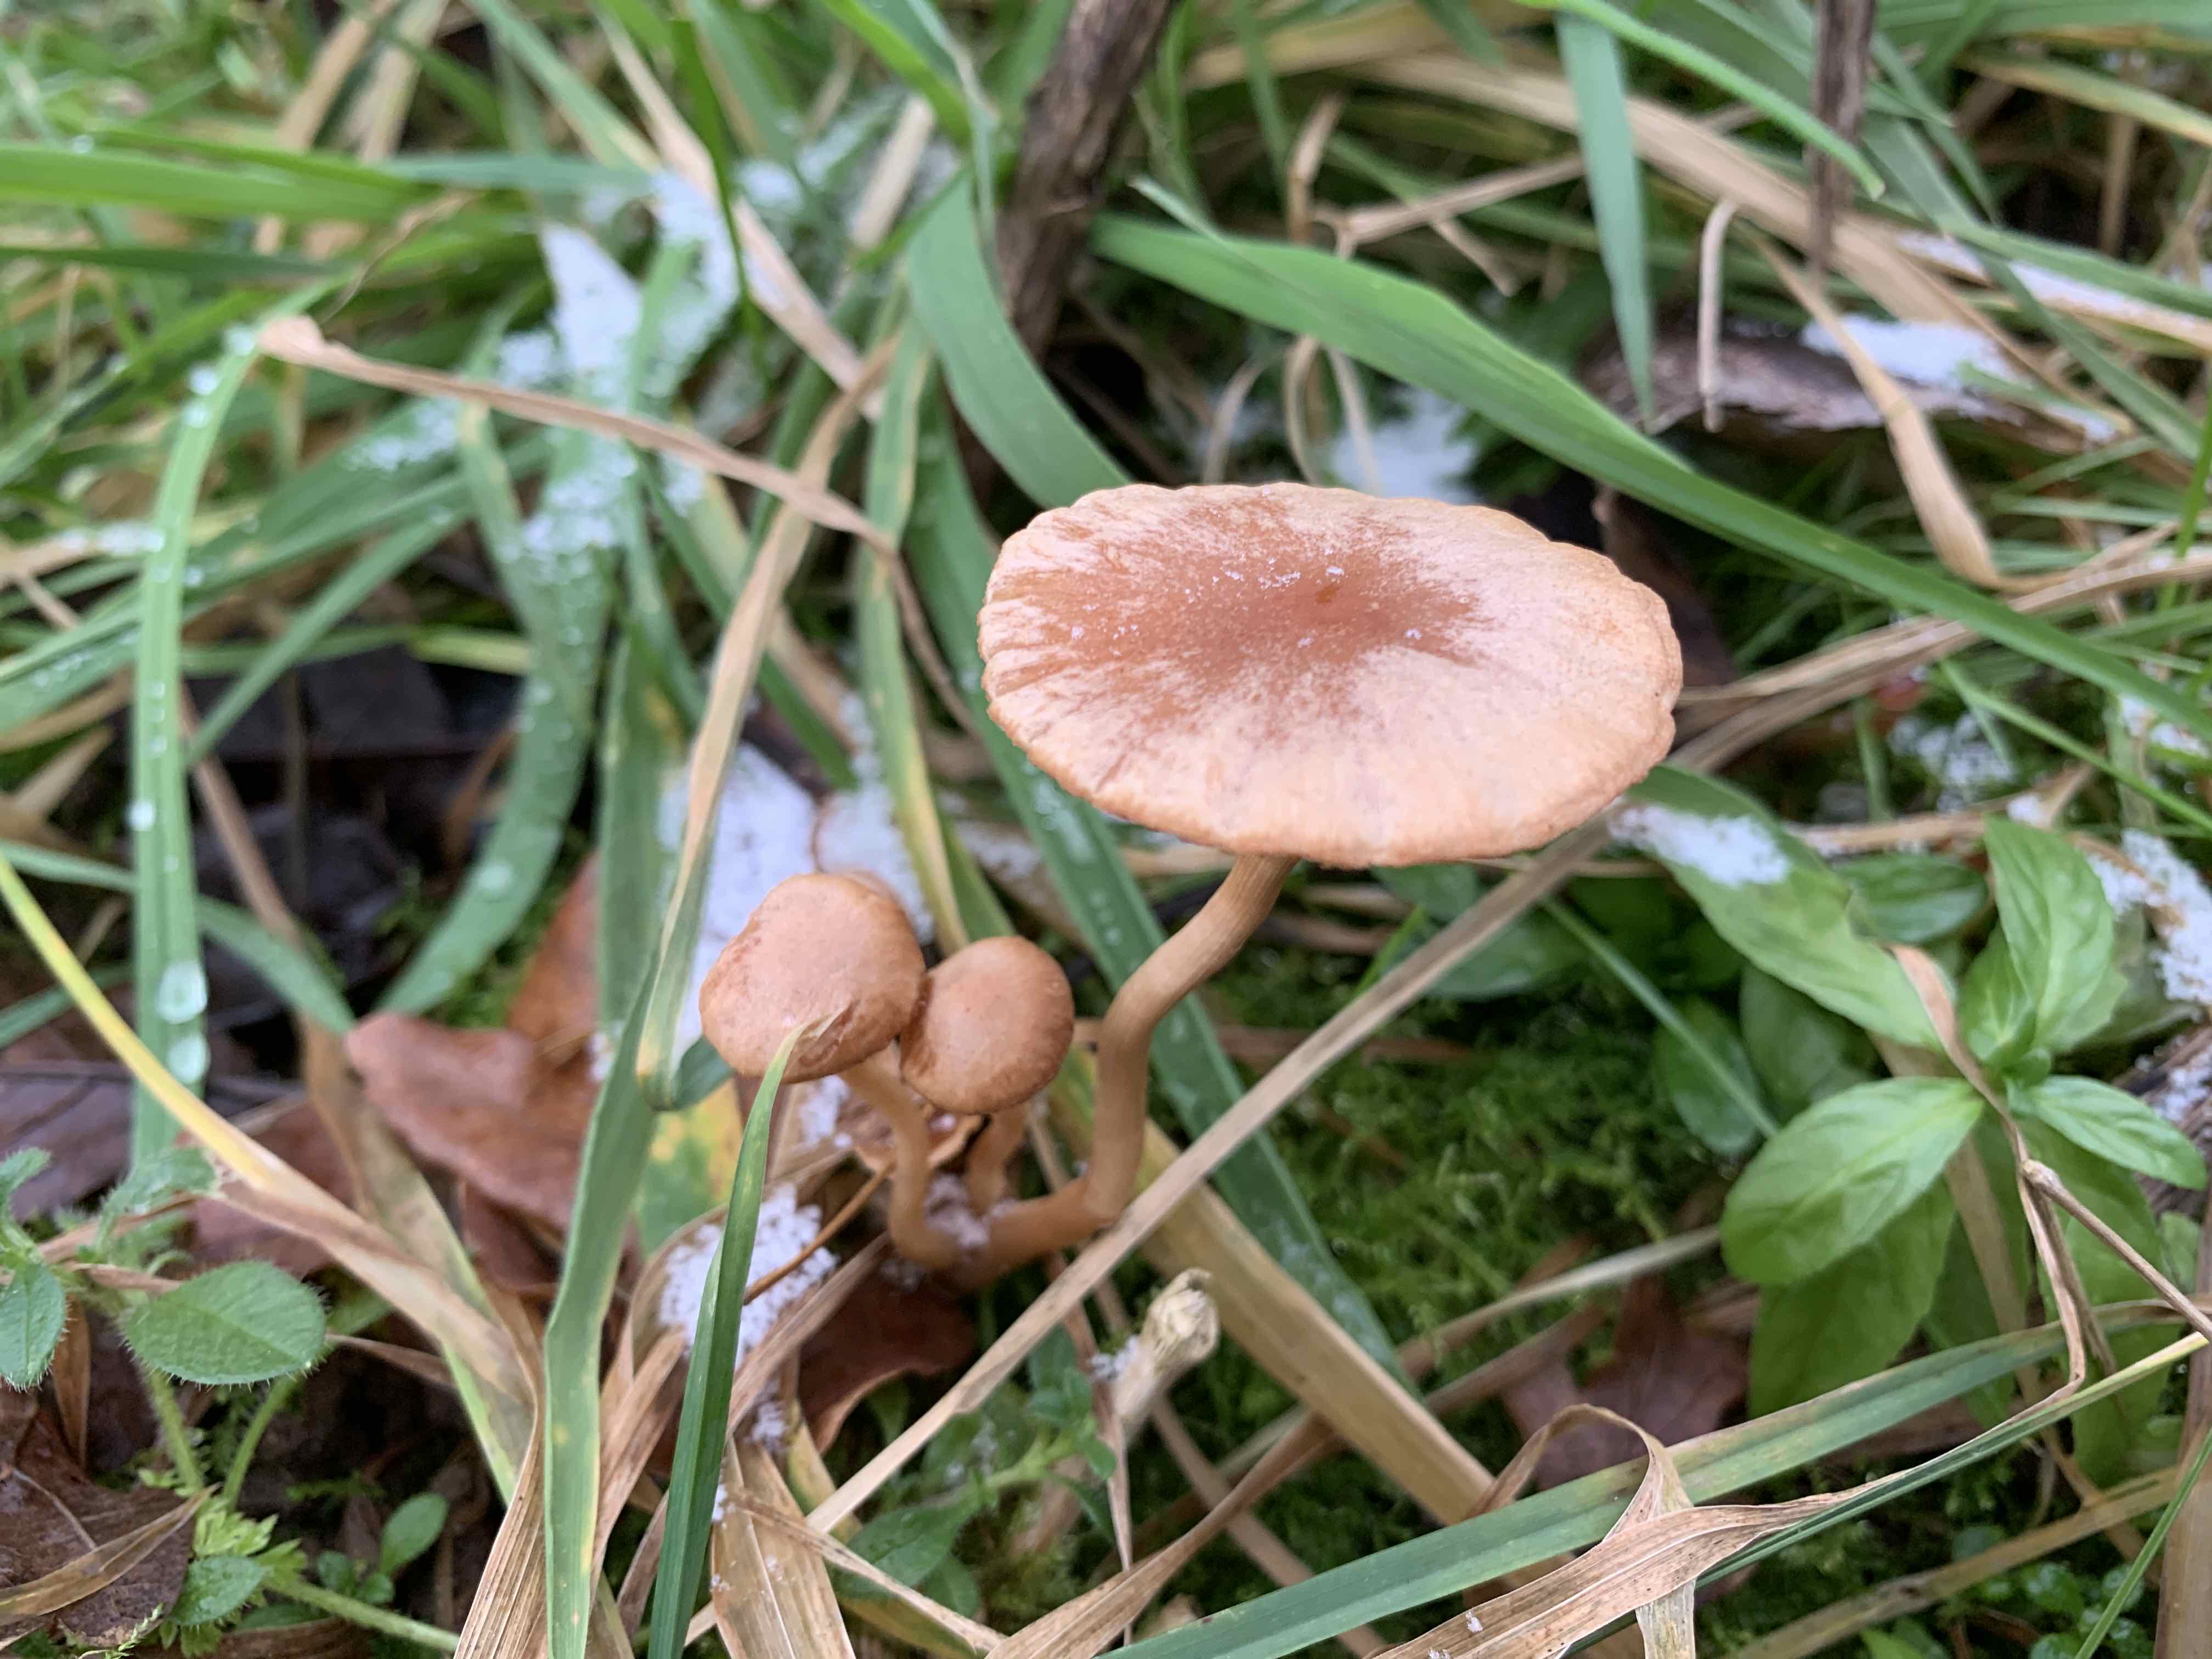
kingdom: Fungi
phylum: Basidiomycota
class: Agaricomycetes
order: Agaricales
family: Tubariaceae
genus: Tubaria
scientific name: Tubaria furfuracea
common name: kliddet fnughat
